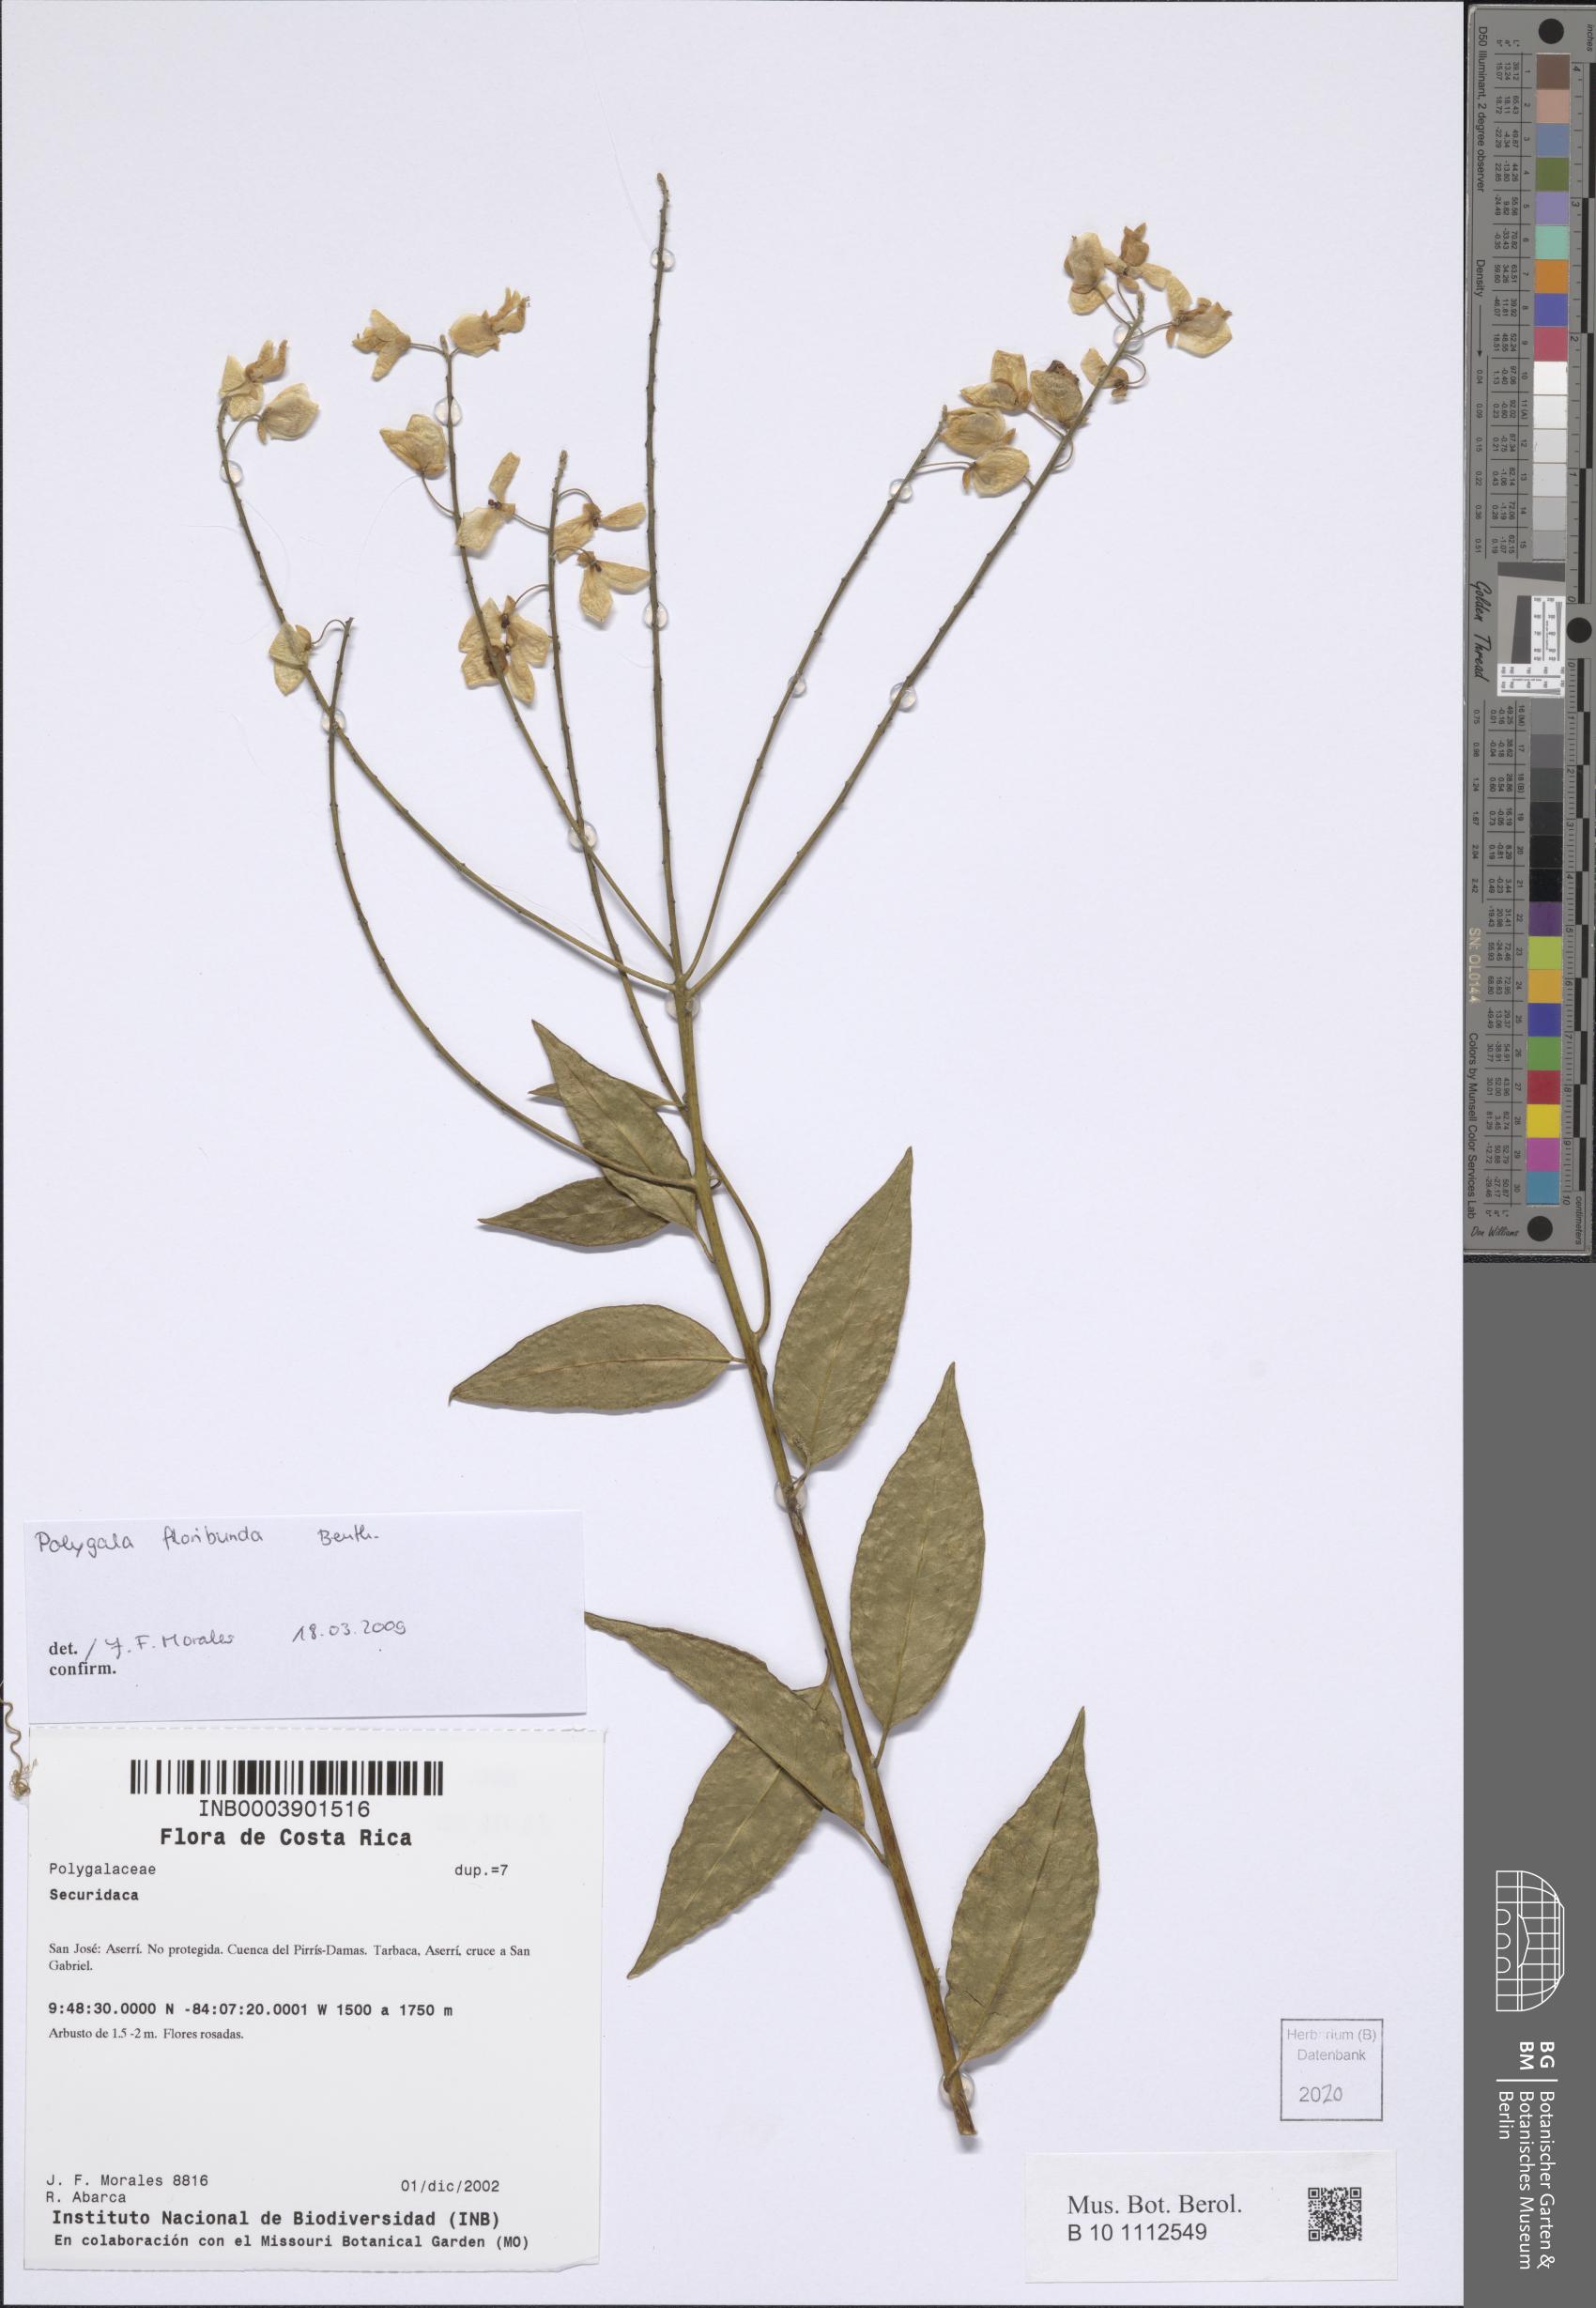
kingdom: Plantae
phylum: Tracheophyta
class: Magnoliopsida
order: Fabales
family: Polygalaceae
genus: Asemeia
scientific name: Asemeia floribunda
